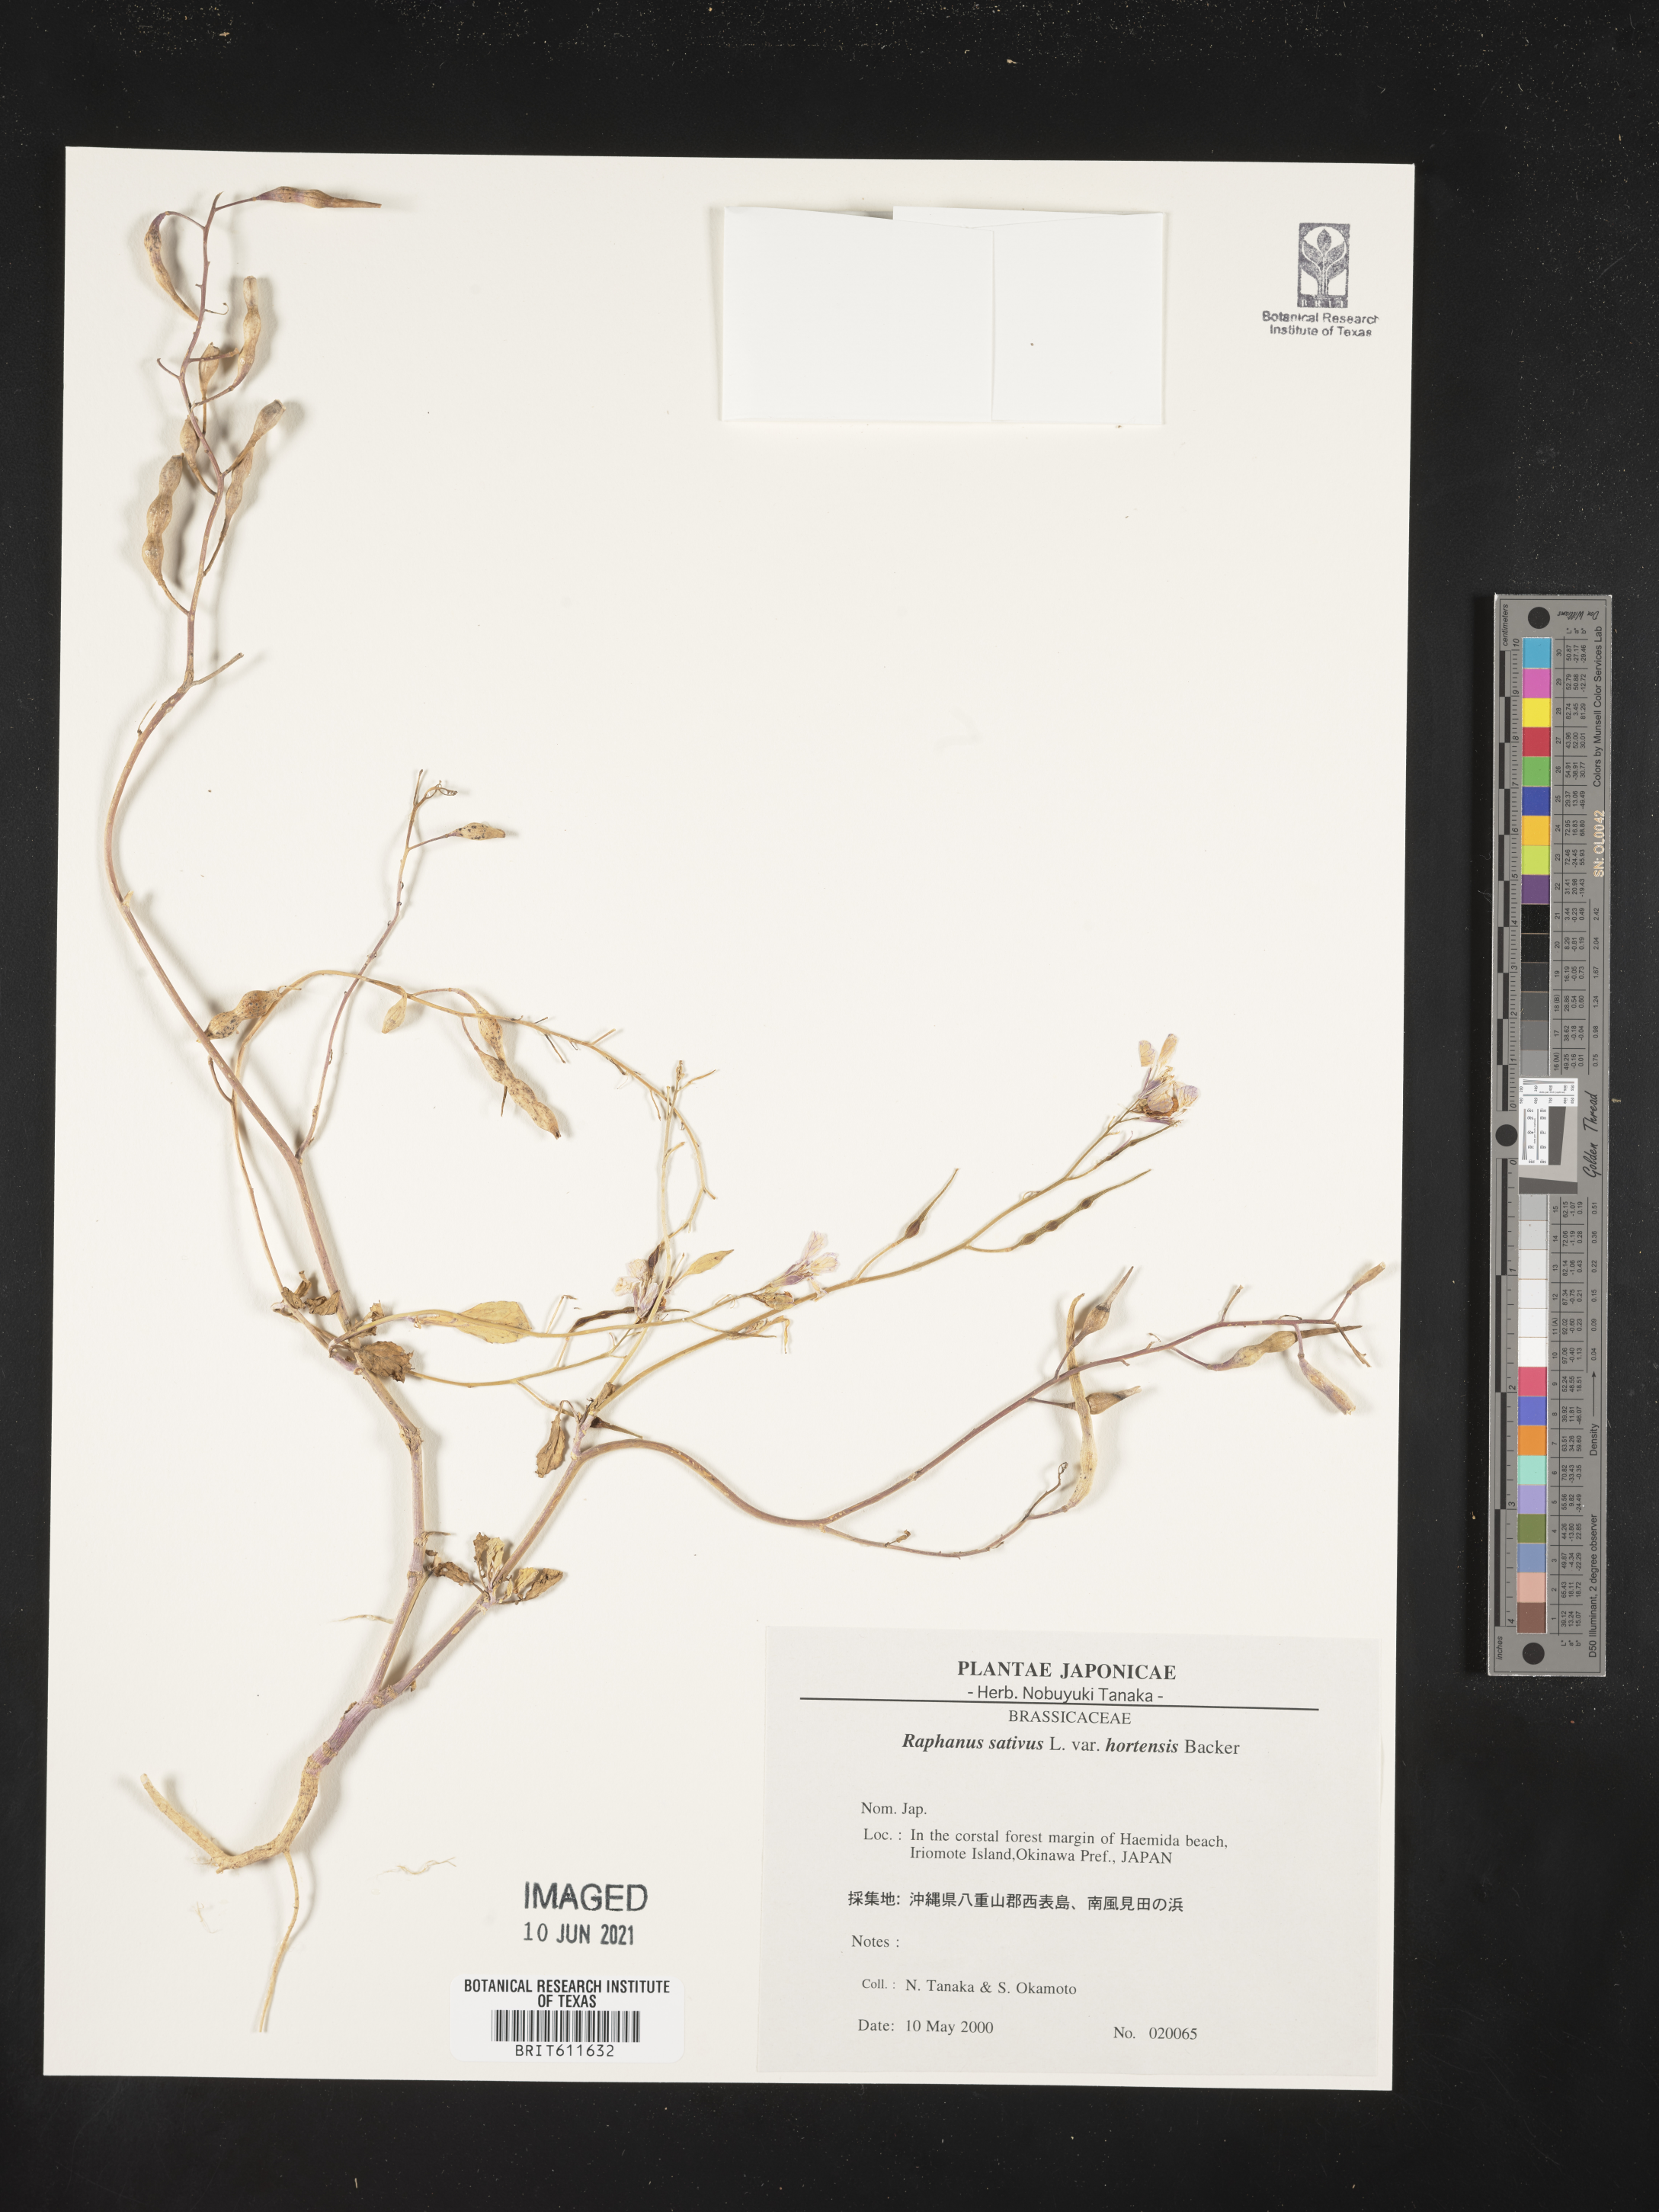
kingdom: Plantae
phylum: Tracheophyta
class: Magnoliopsida
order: Brassicales
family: Brassicaceae
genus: Raphanus
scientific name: Raphanus sativus
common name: Cultivated radish
